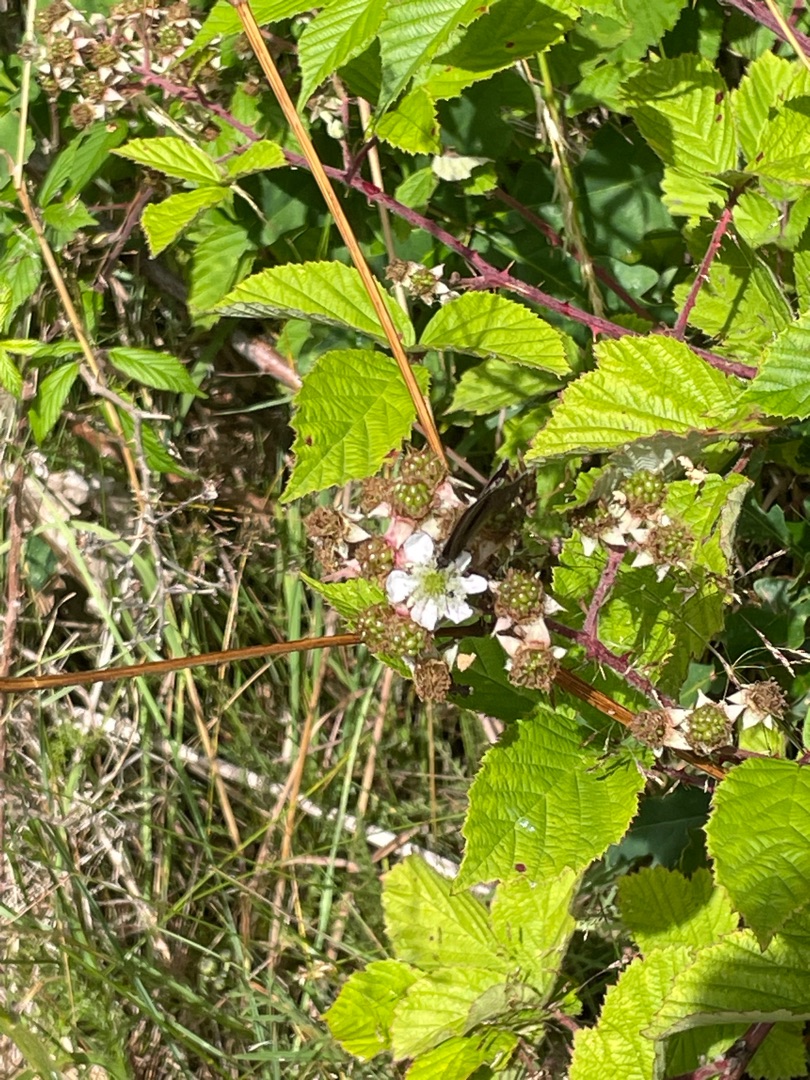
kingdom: Animalia
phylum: Arthropoda
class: Insecta
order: Lepidoptera
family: Nymphalidae
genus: Aphantopus
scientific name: Aphantopus hyperantus
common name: Engrandøje
